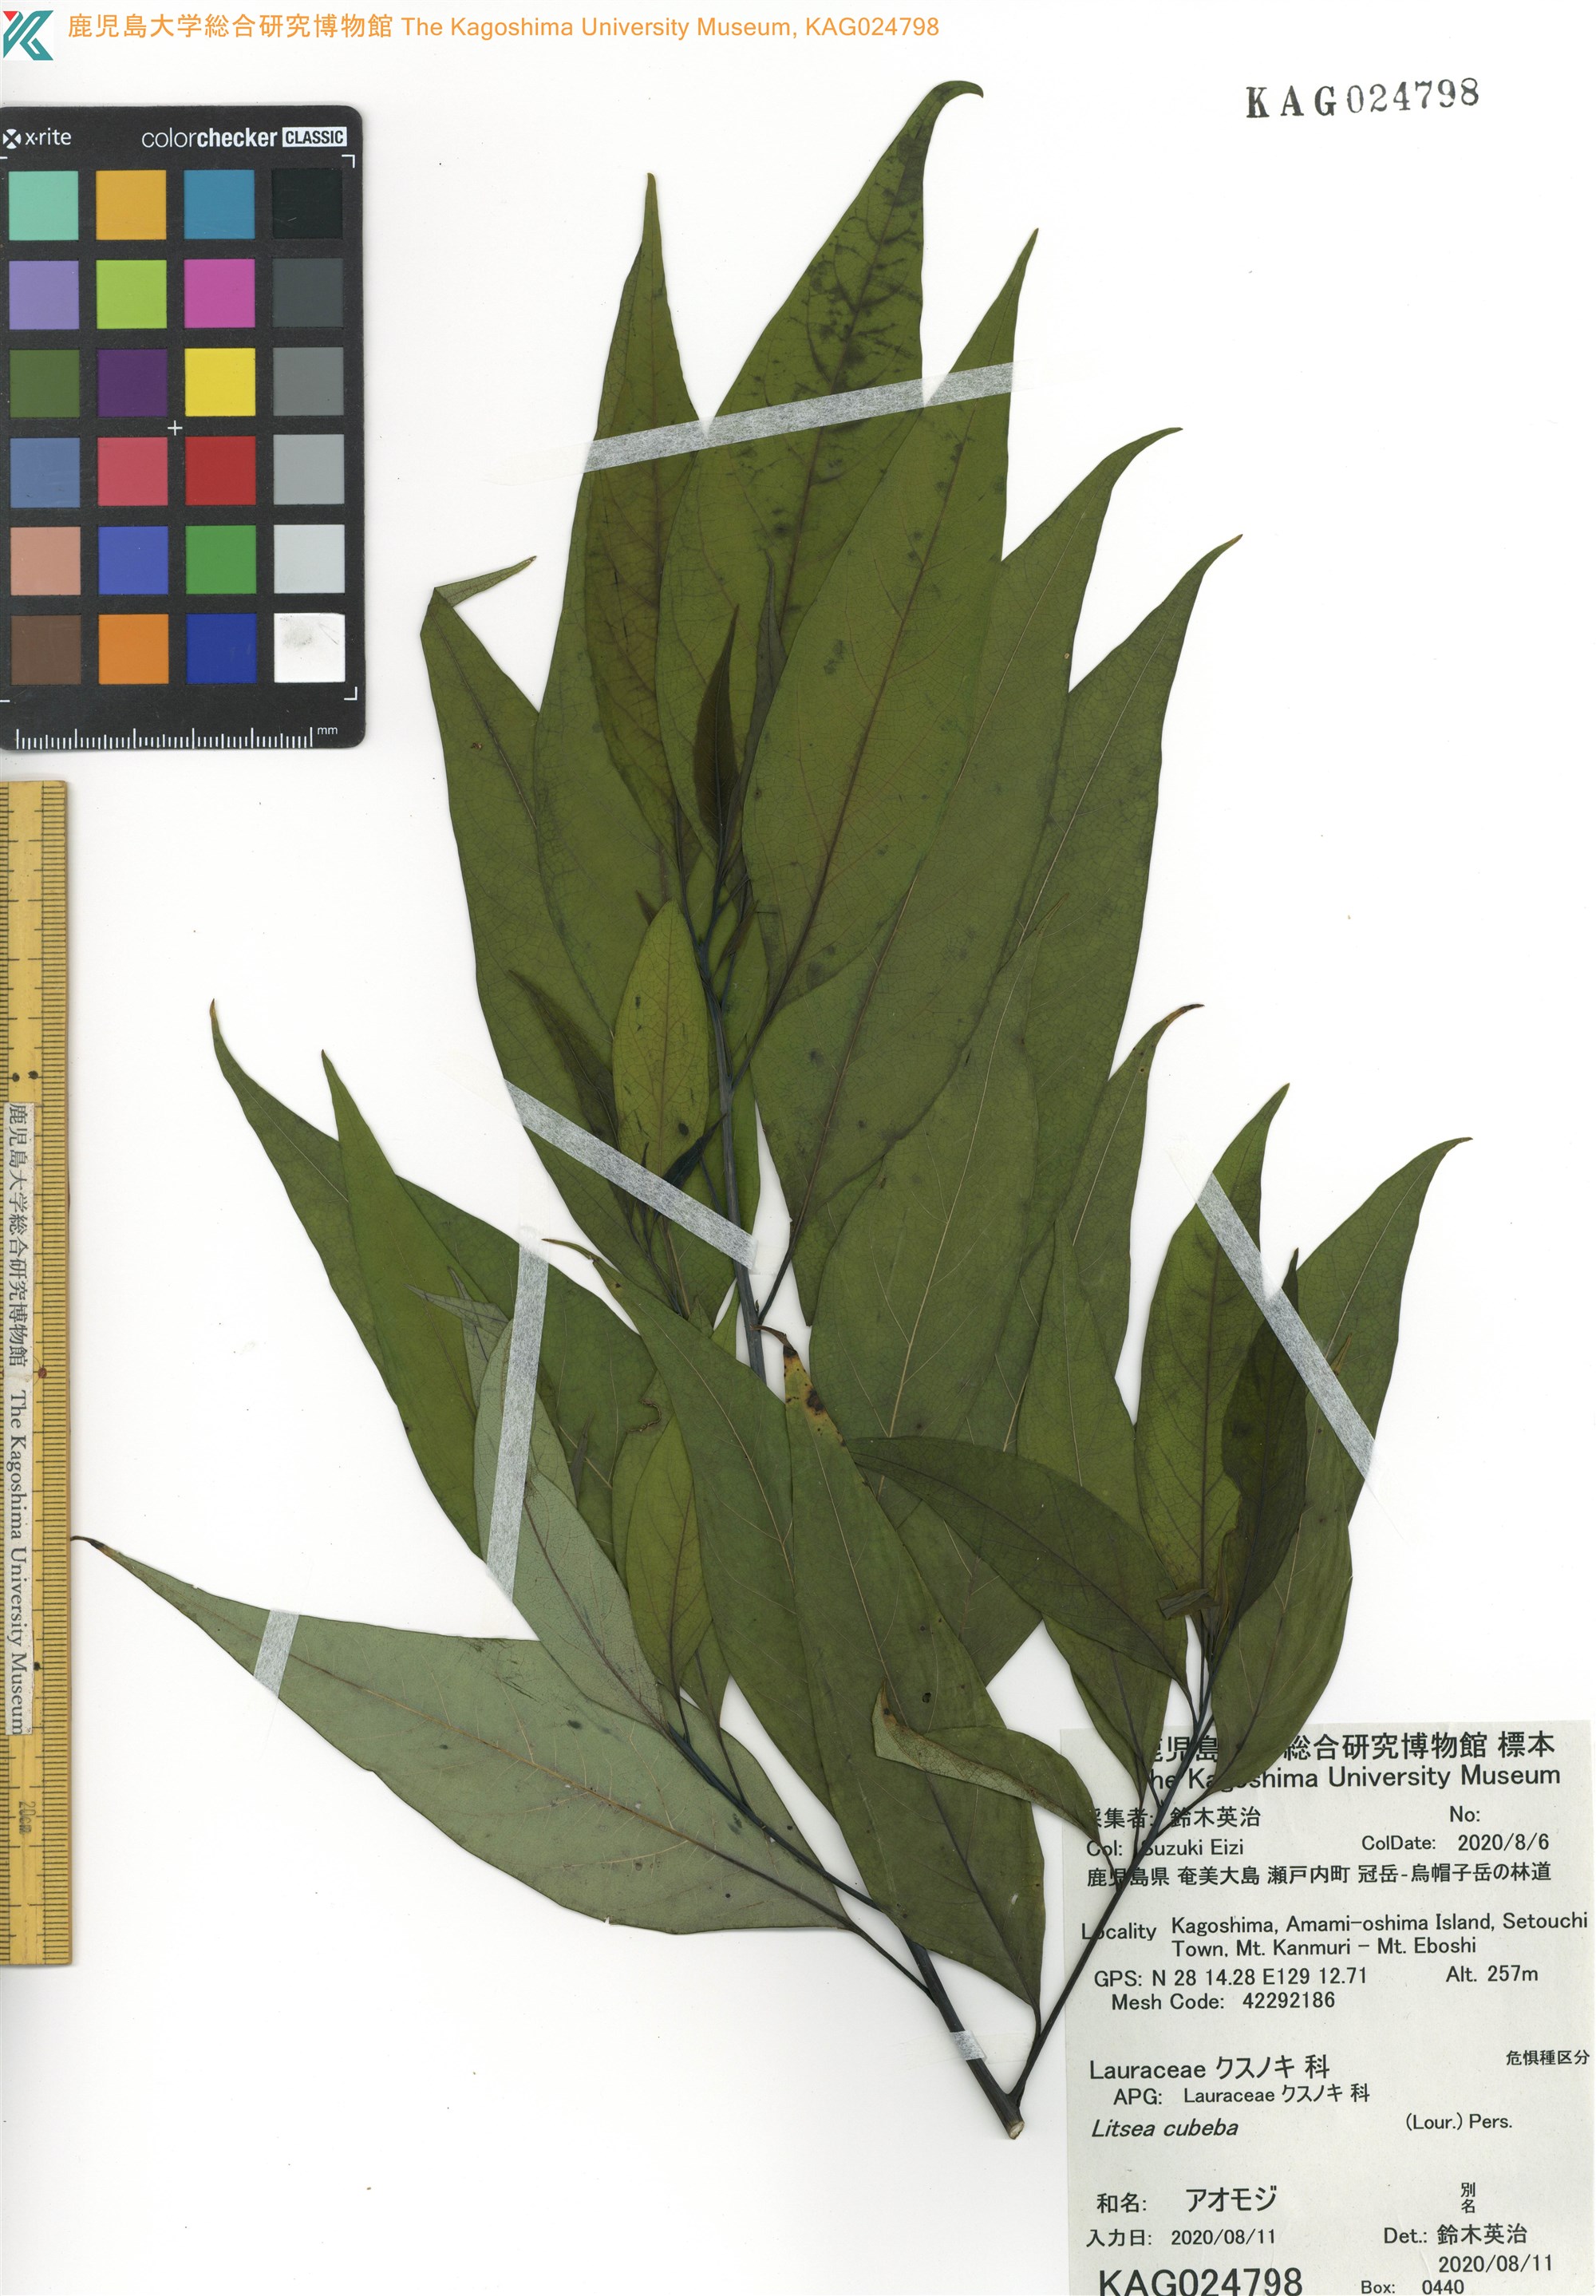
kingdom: Plantae
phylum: Tracheophyta
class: Magnoliopsida
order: Laurales
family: Lauraceae
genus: Litsea
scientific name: Litsea cubeba
